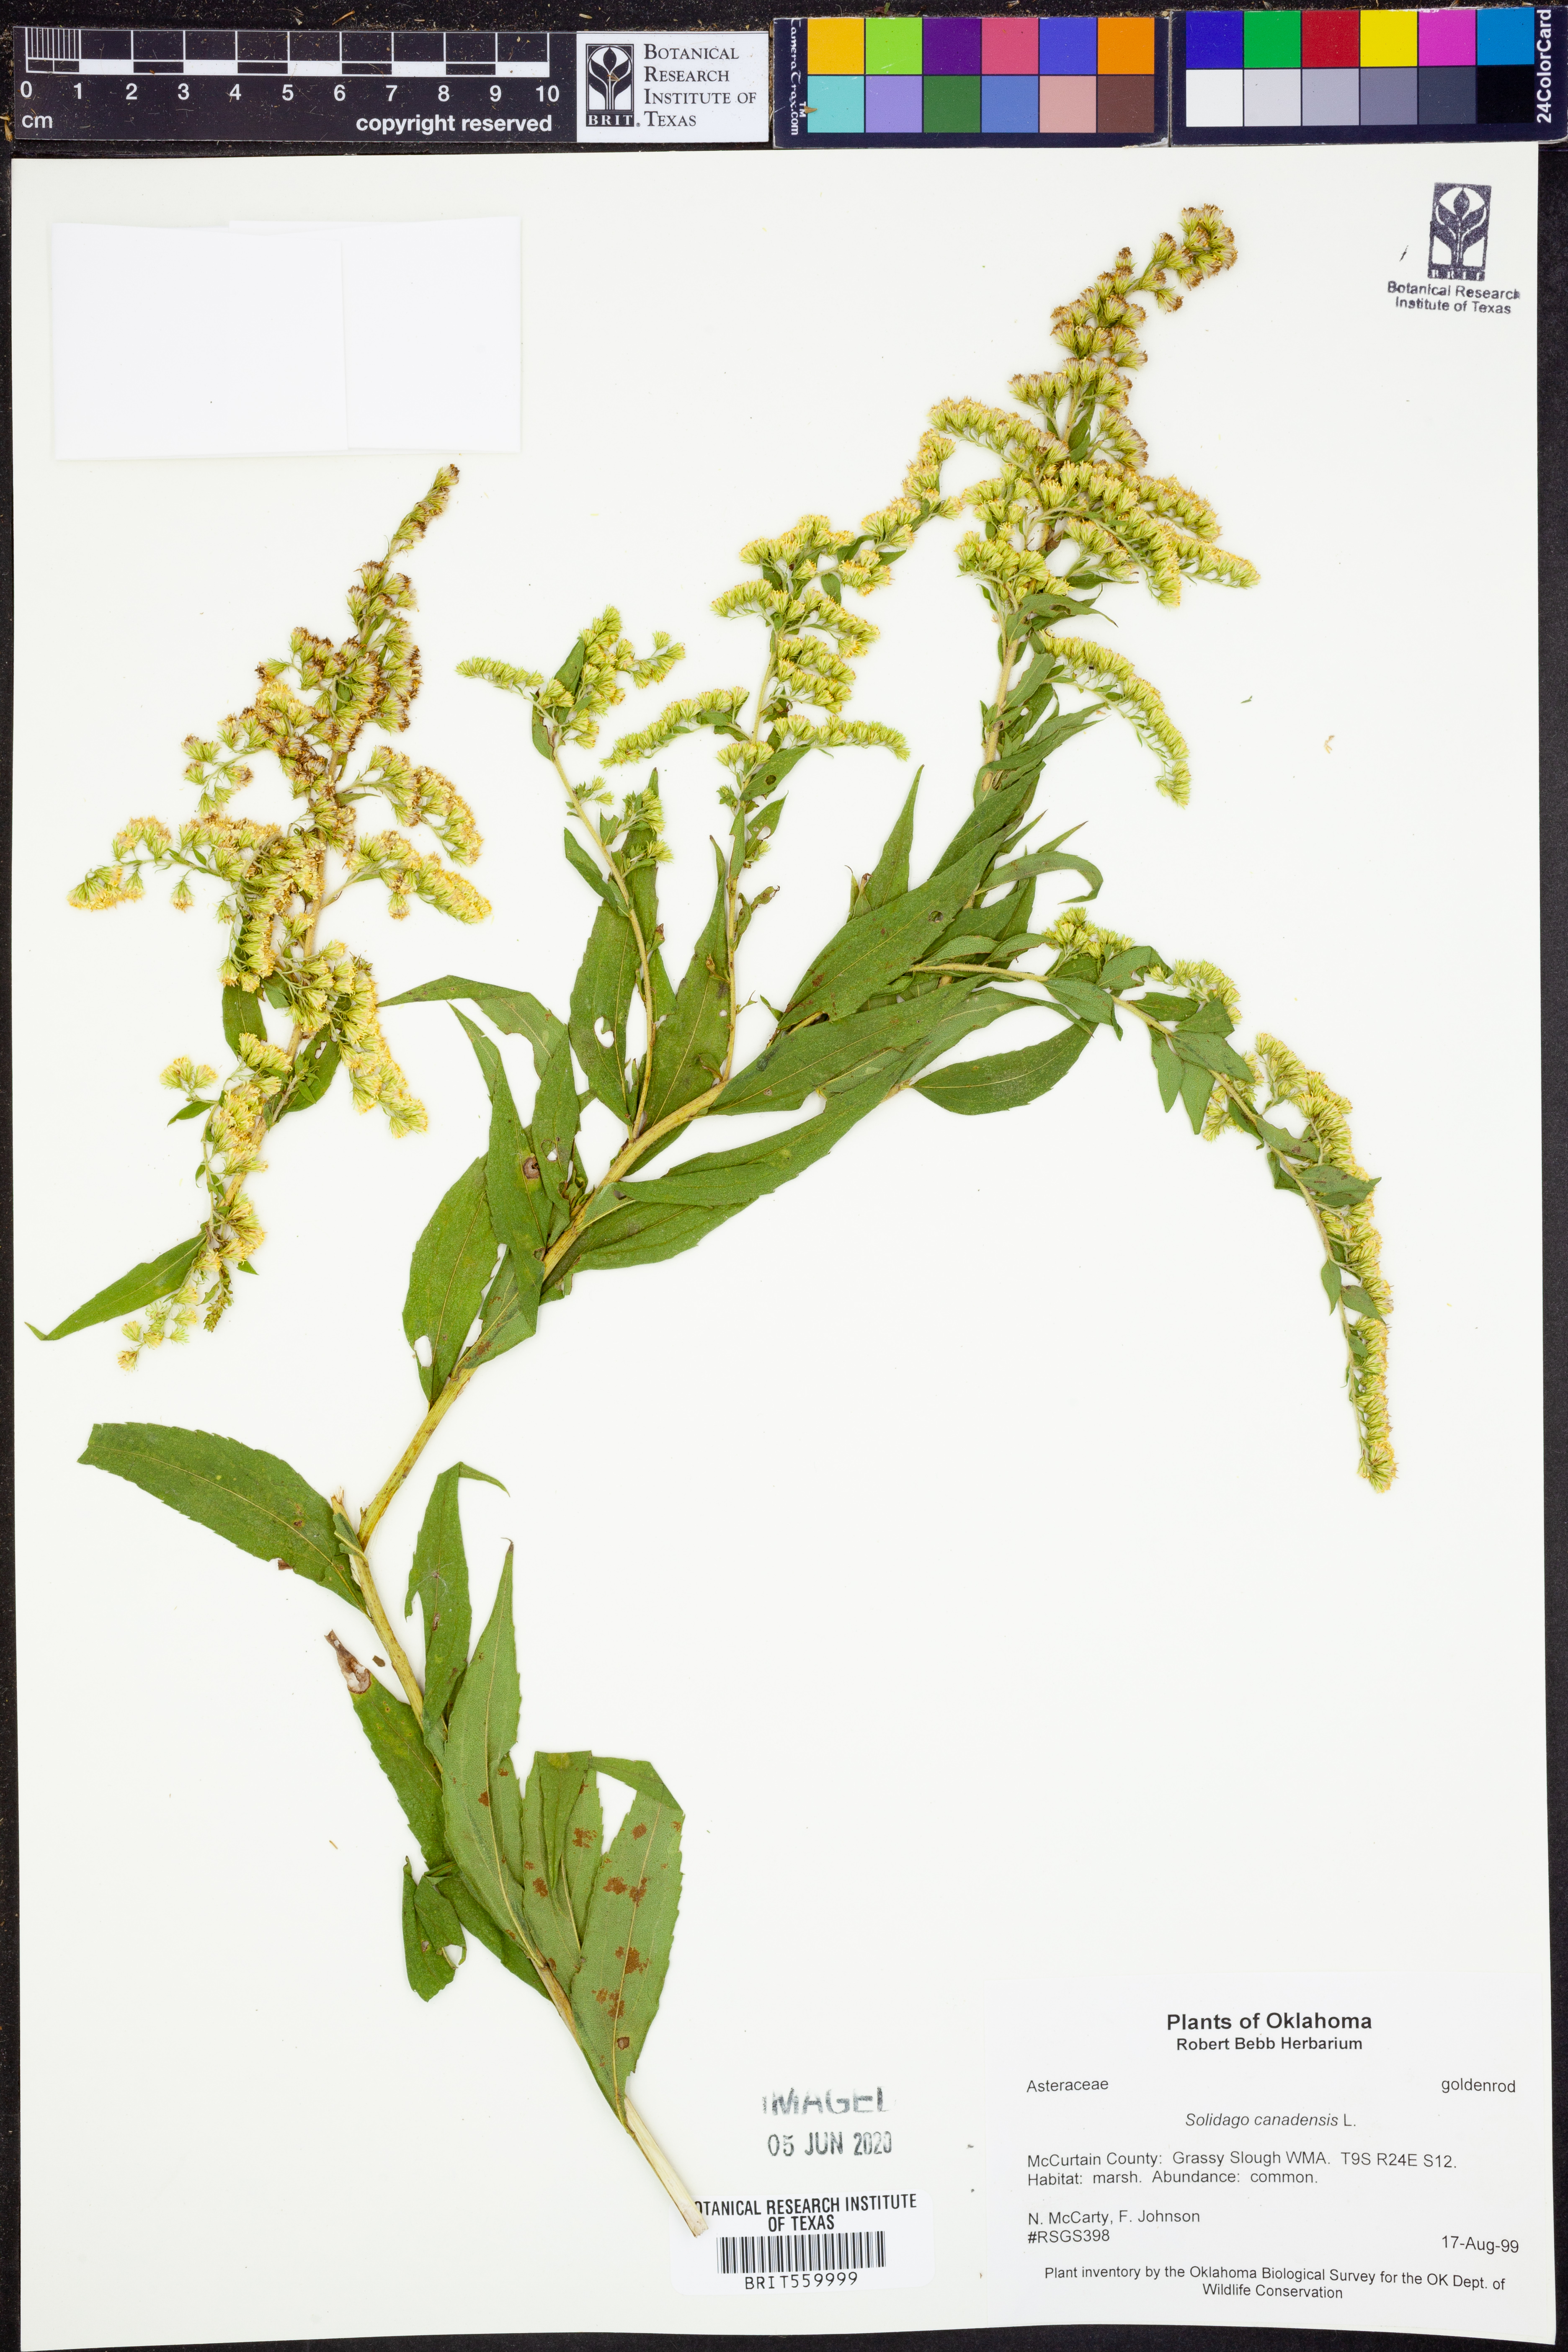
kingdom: Plantae
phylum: Tracheophyta
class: Magnoliopsida
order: Asterales
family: Asteraceae
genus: Solidago
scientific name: Solidago canadensis
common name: Canada goldenrod
